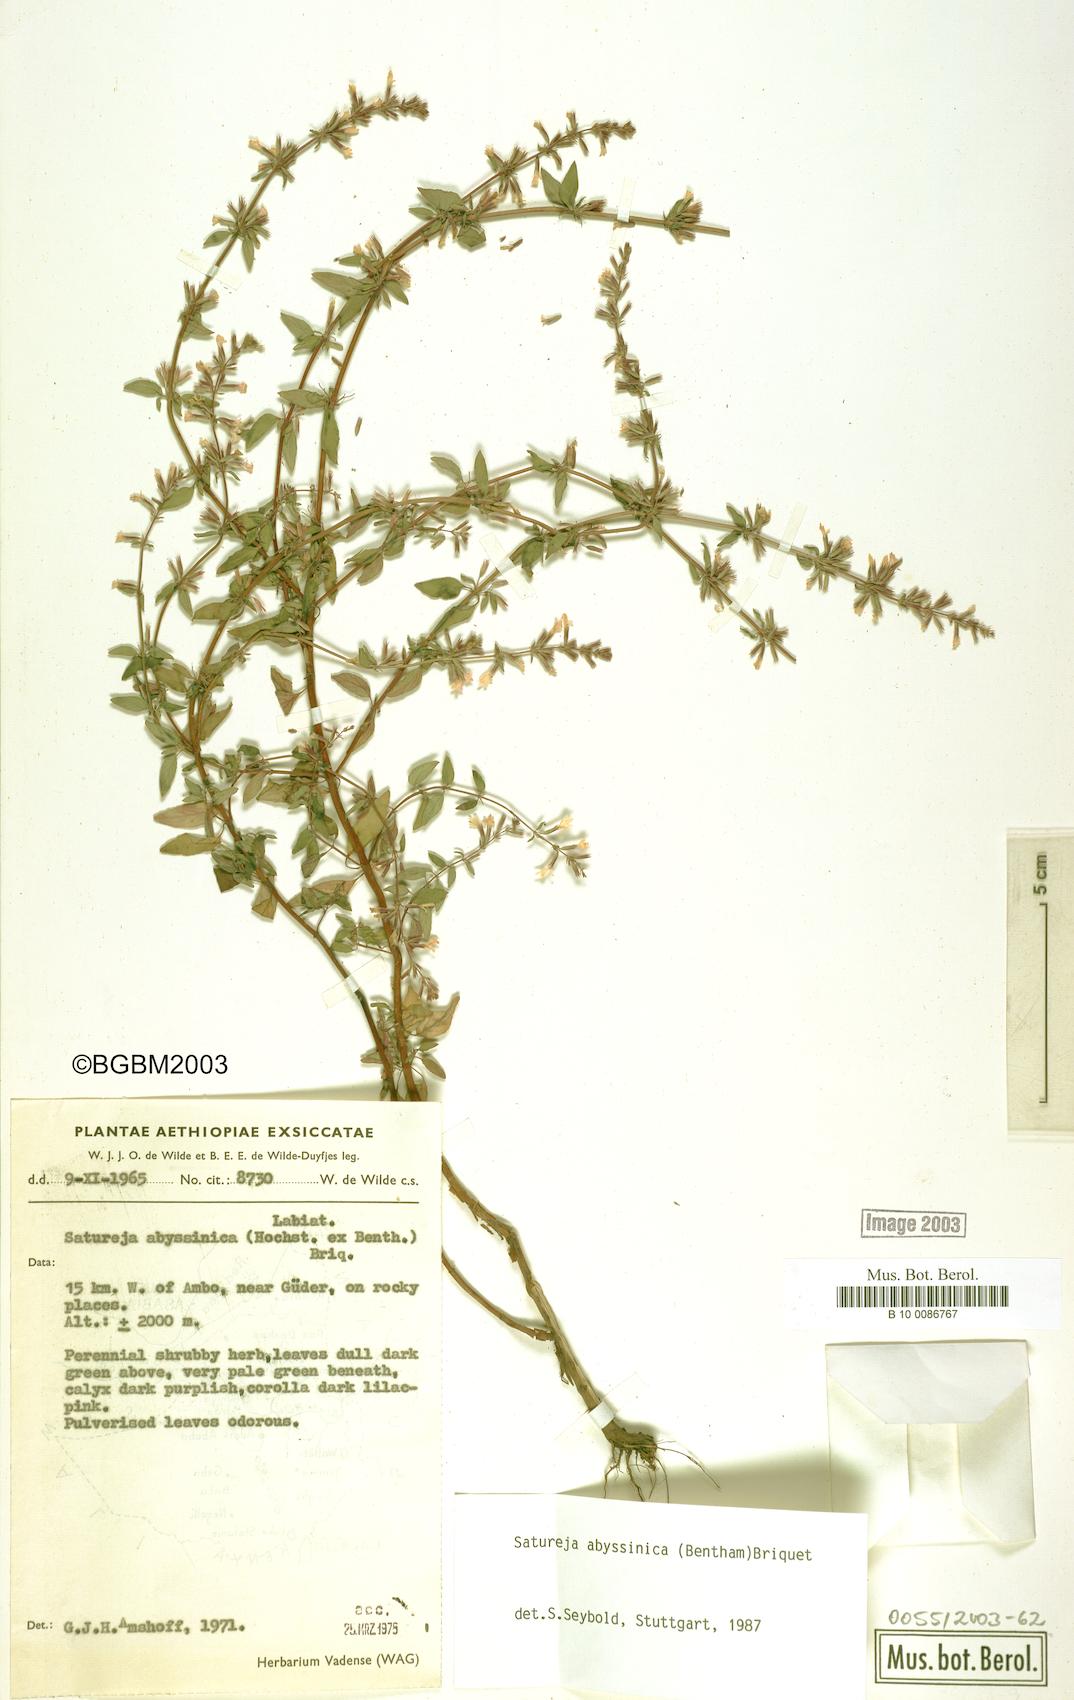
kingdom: Plantae
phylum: Tracheophyta
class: Magnoliopsida
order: Lamiales
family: Lamiaceae
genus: Clinopodium
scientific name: Clinopodium abyssinicum
